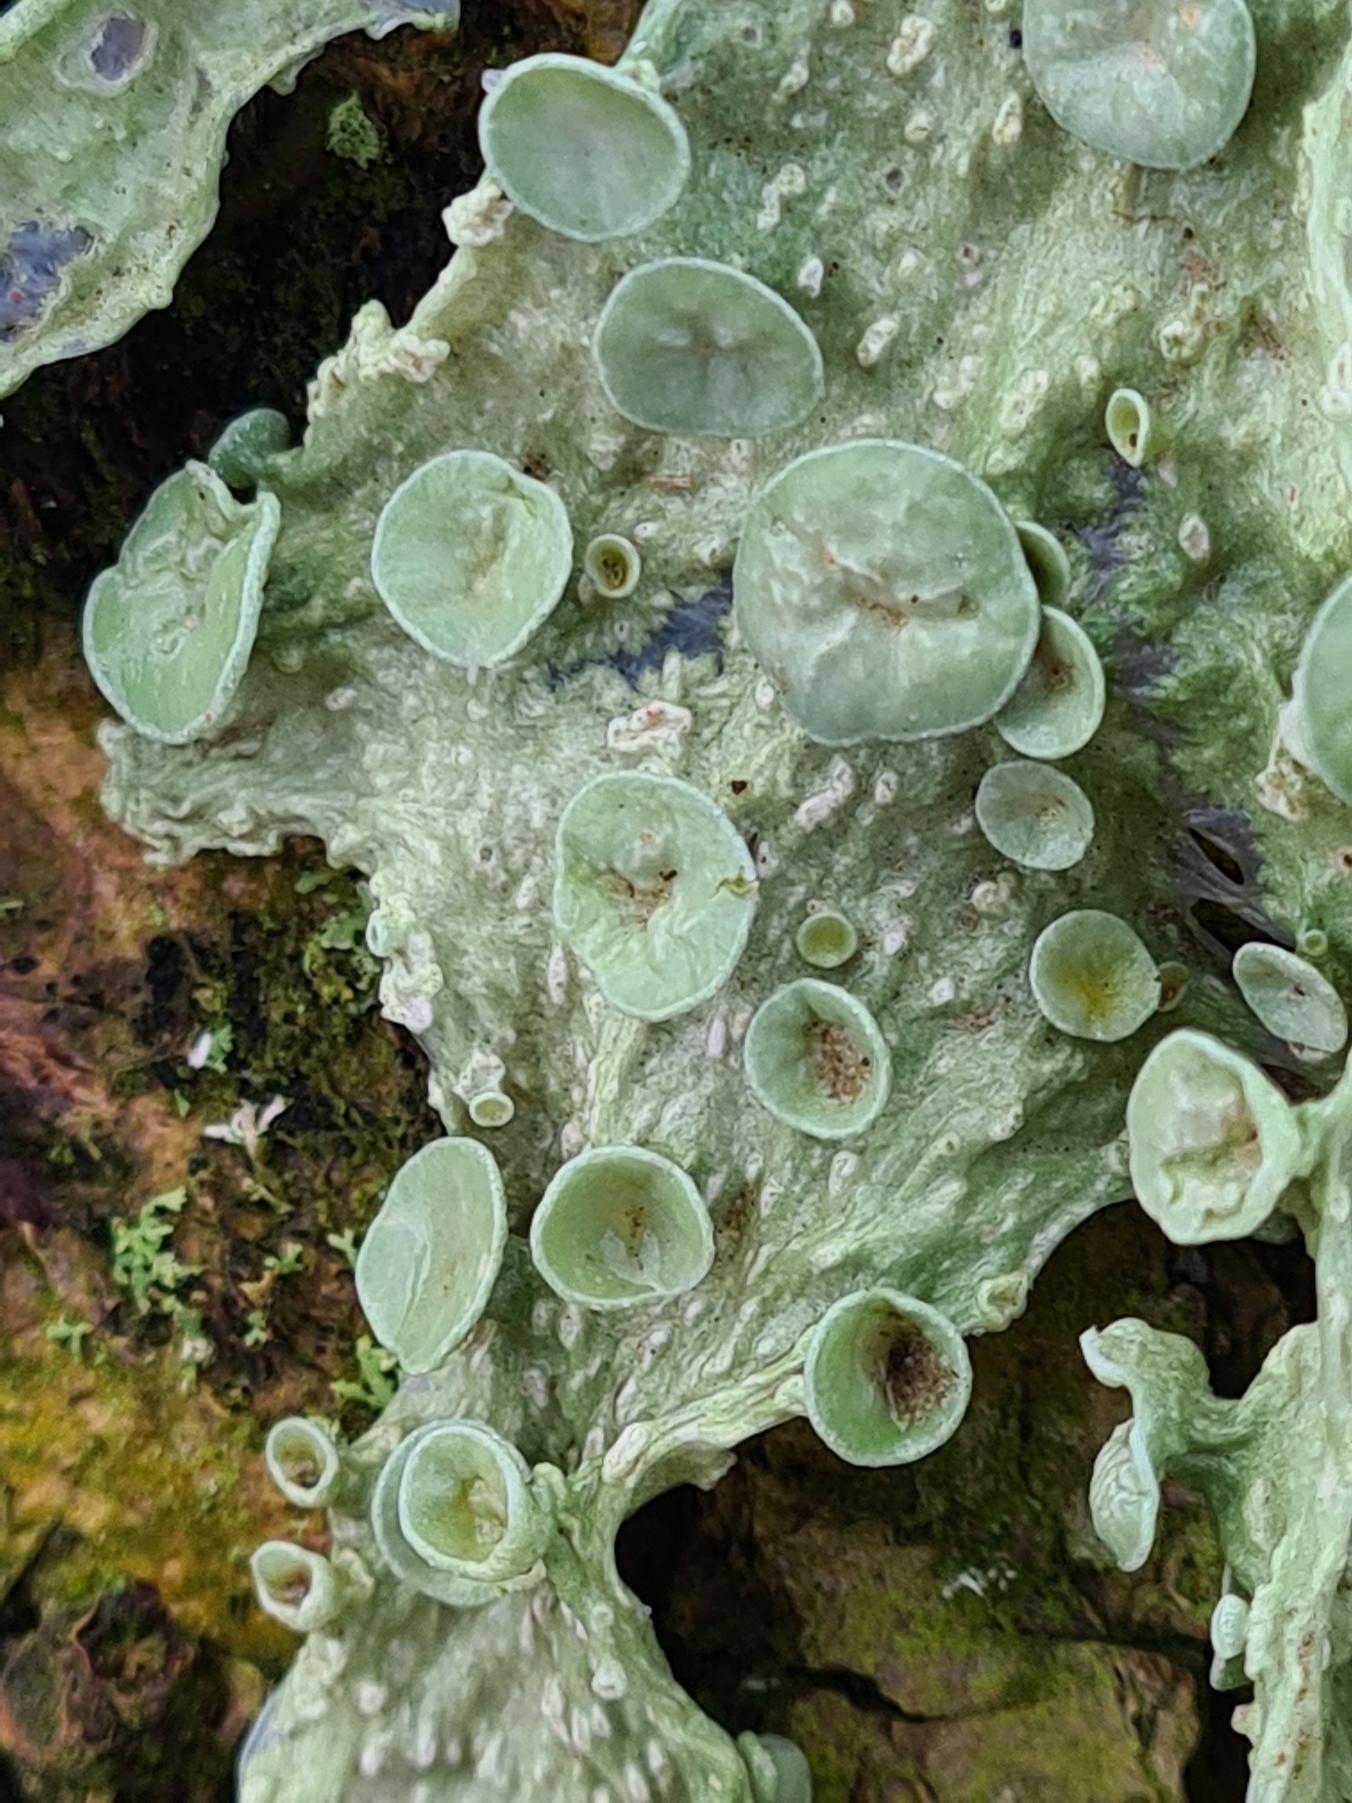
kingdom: Fungi
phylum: Ascomycota
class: Lecanoromycetes
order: Lecanorales
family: Ramalinaceae
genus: Ramalina
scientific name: Ramalina fraxinea
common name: Stor grenlav
